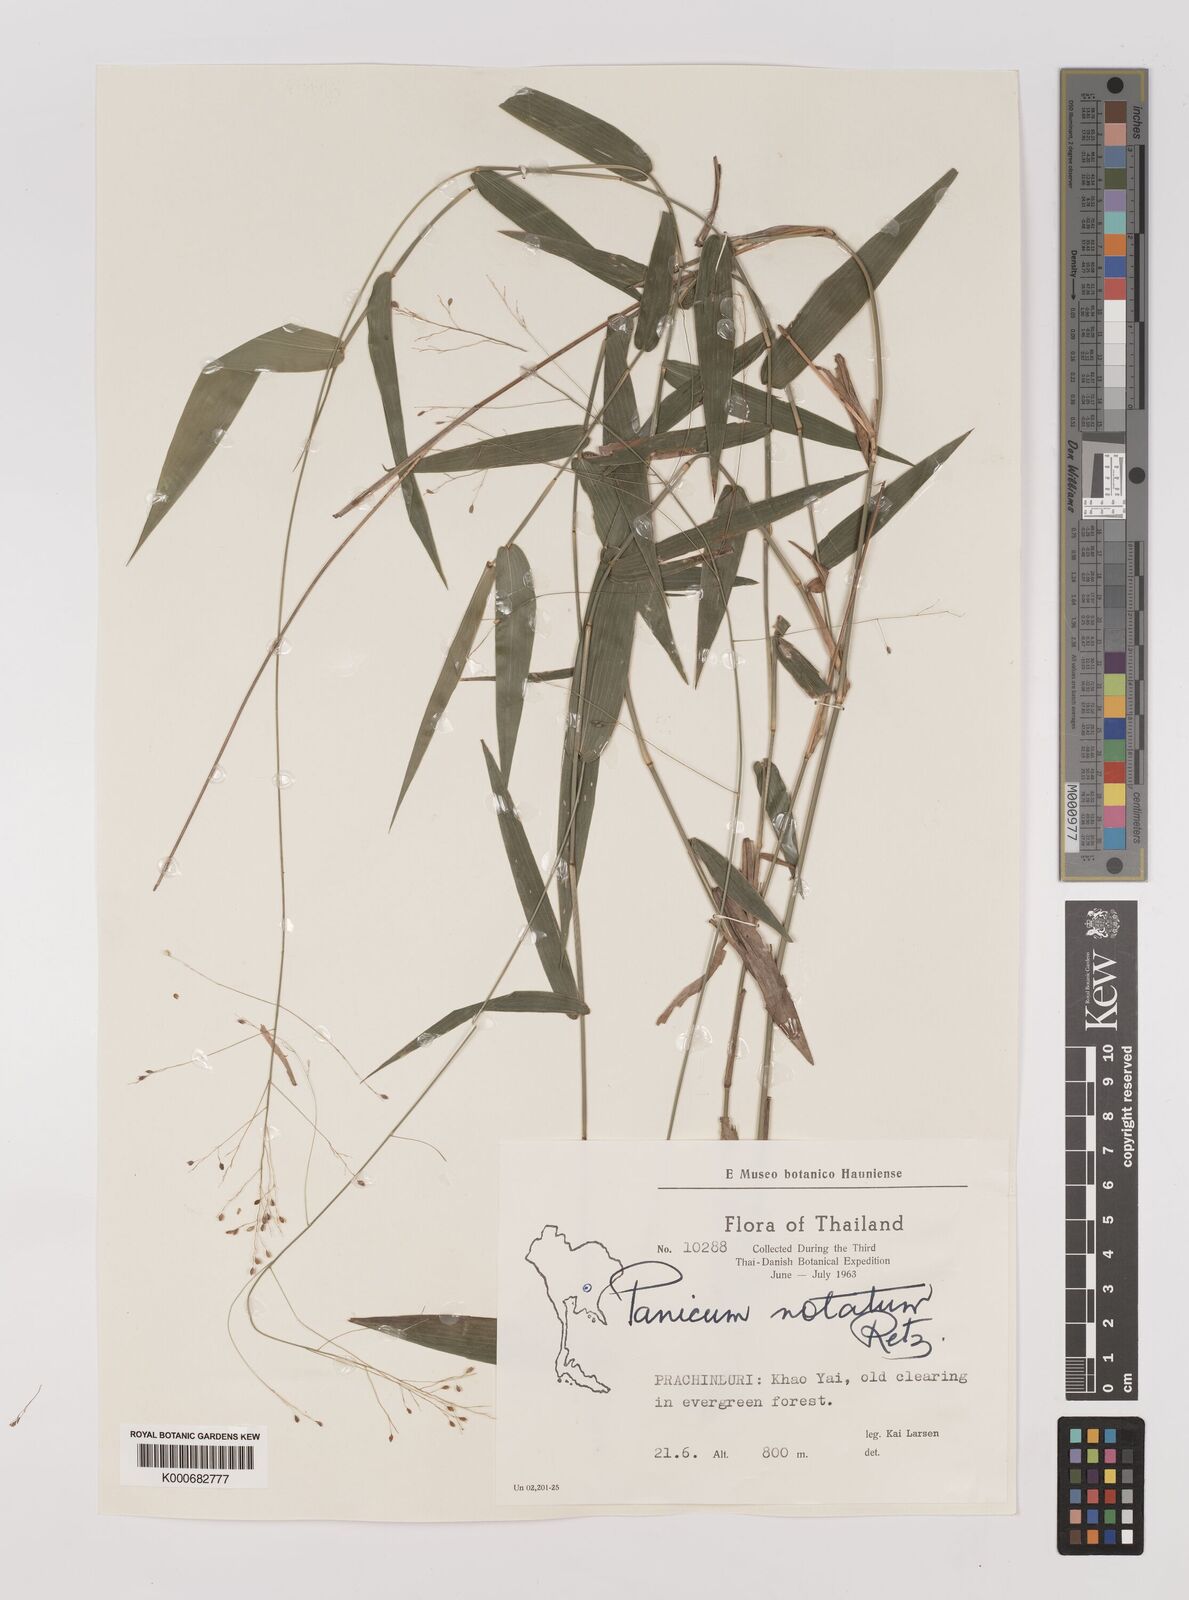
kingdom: Plantae
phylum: Tracheophyta
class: Liliopsida
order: Poales
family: Poaceae
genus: Panicum
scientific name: Panicum notatum
